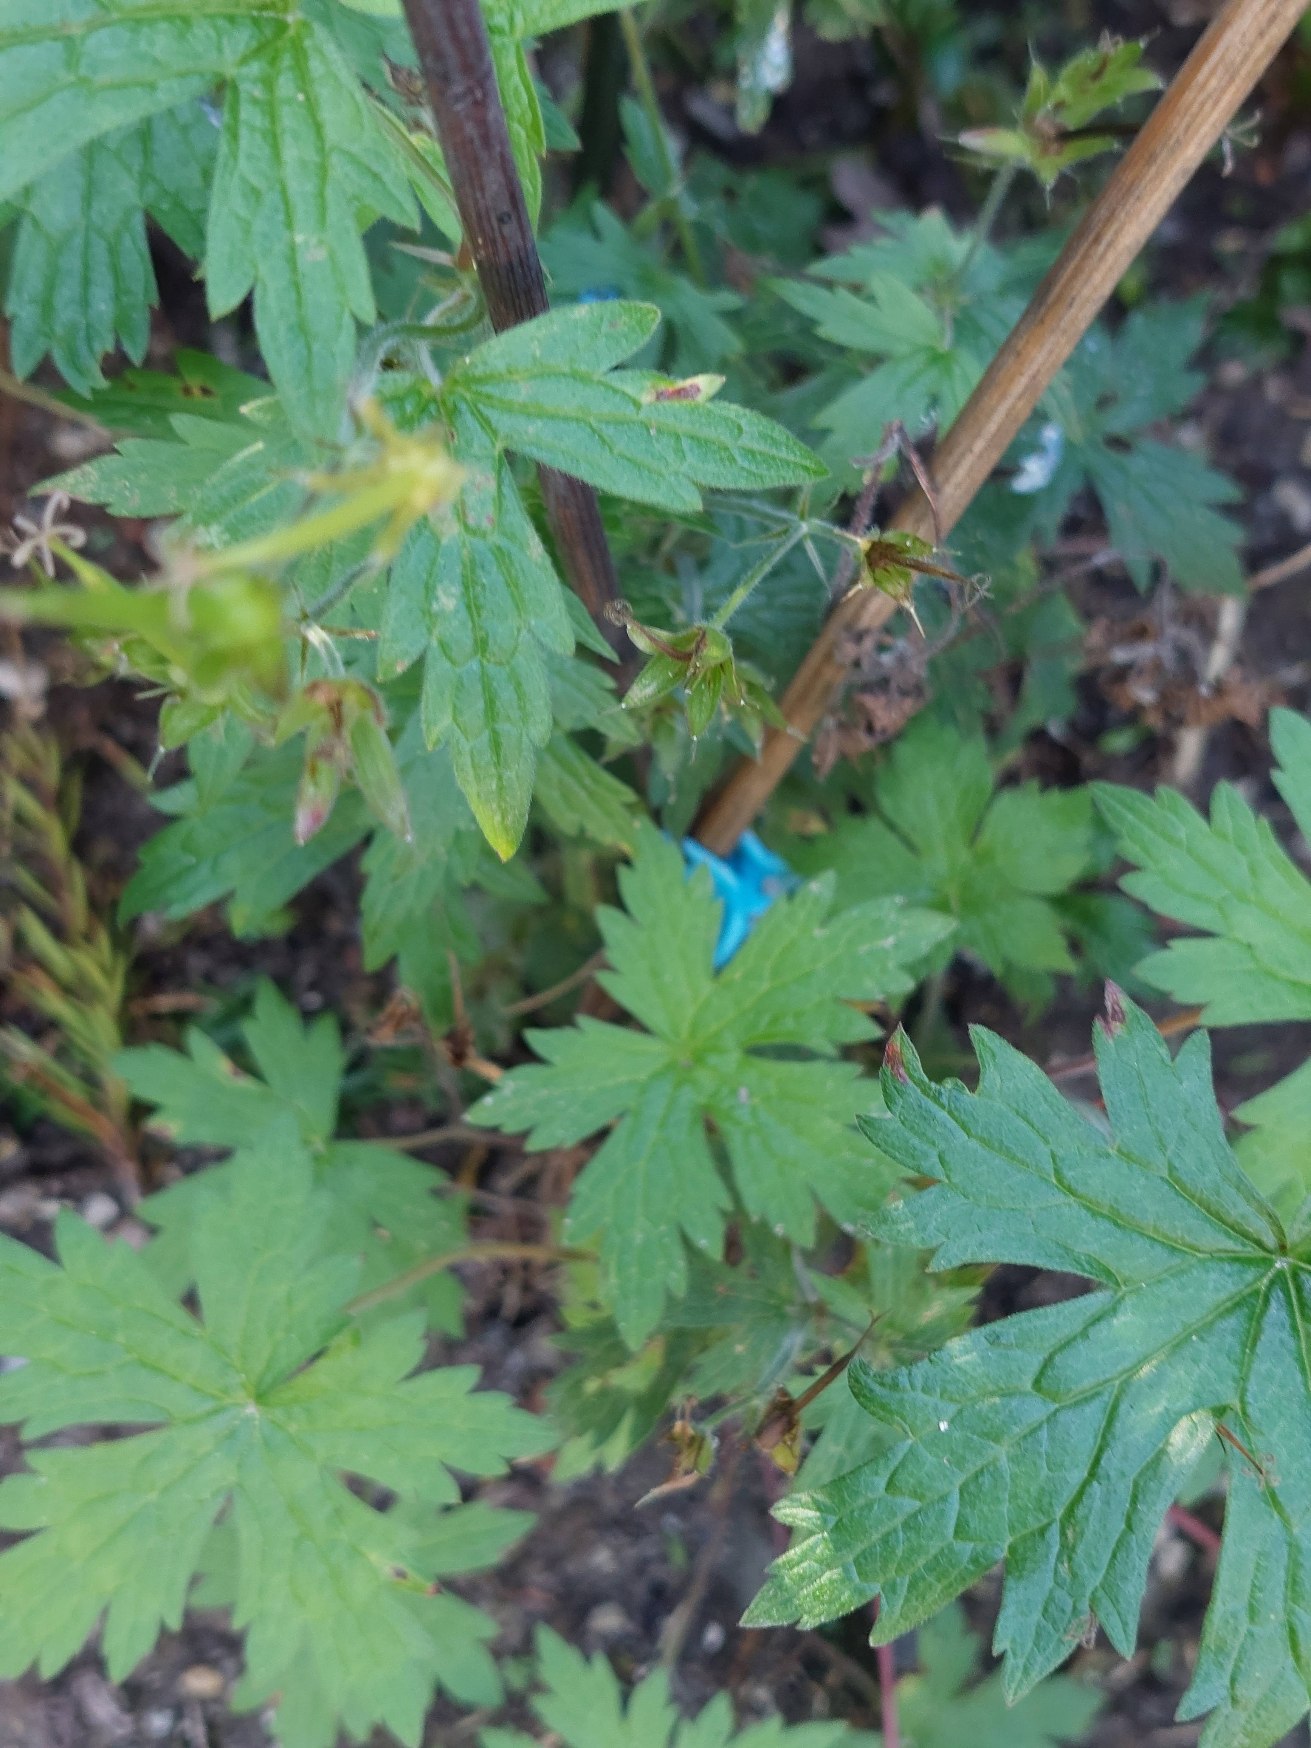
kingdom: Plantae
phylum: Tracheophyta
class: Magnoliopsida
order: Geraniales
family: Geraniaceae
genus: Geranium
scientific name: Geranium endressii
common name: Spansk storkenæb
